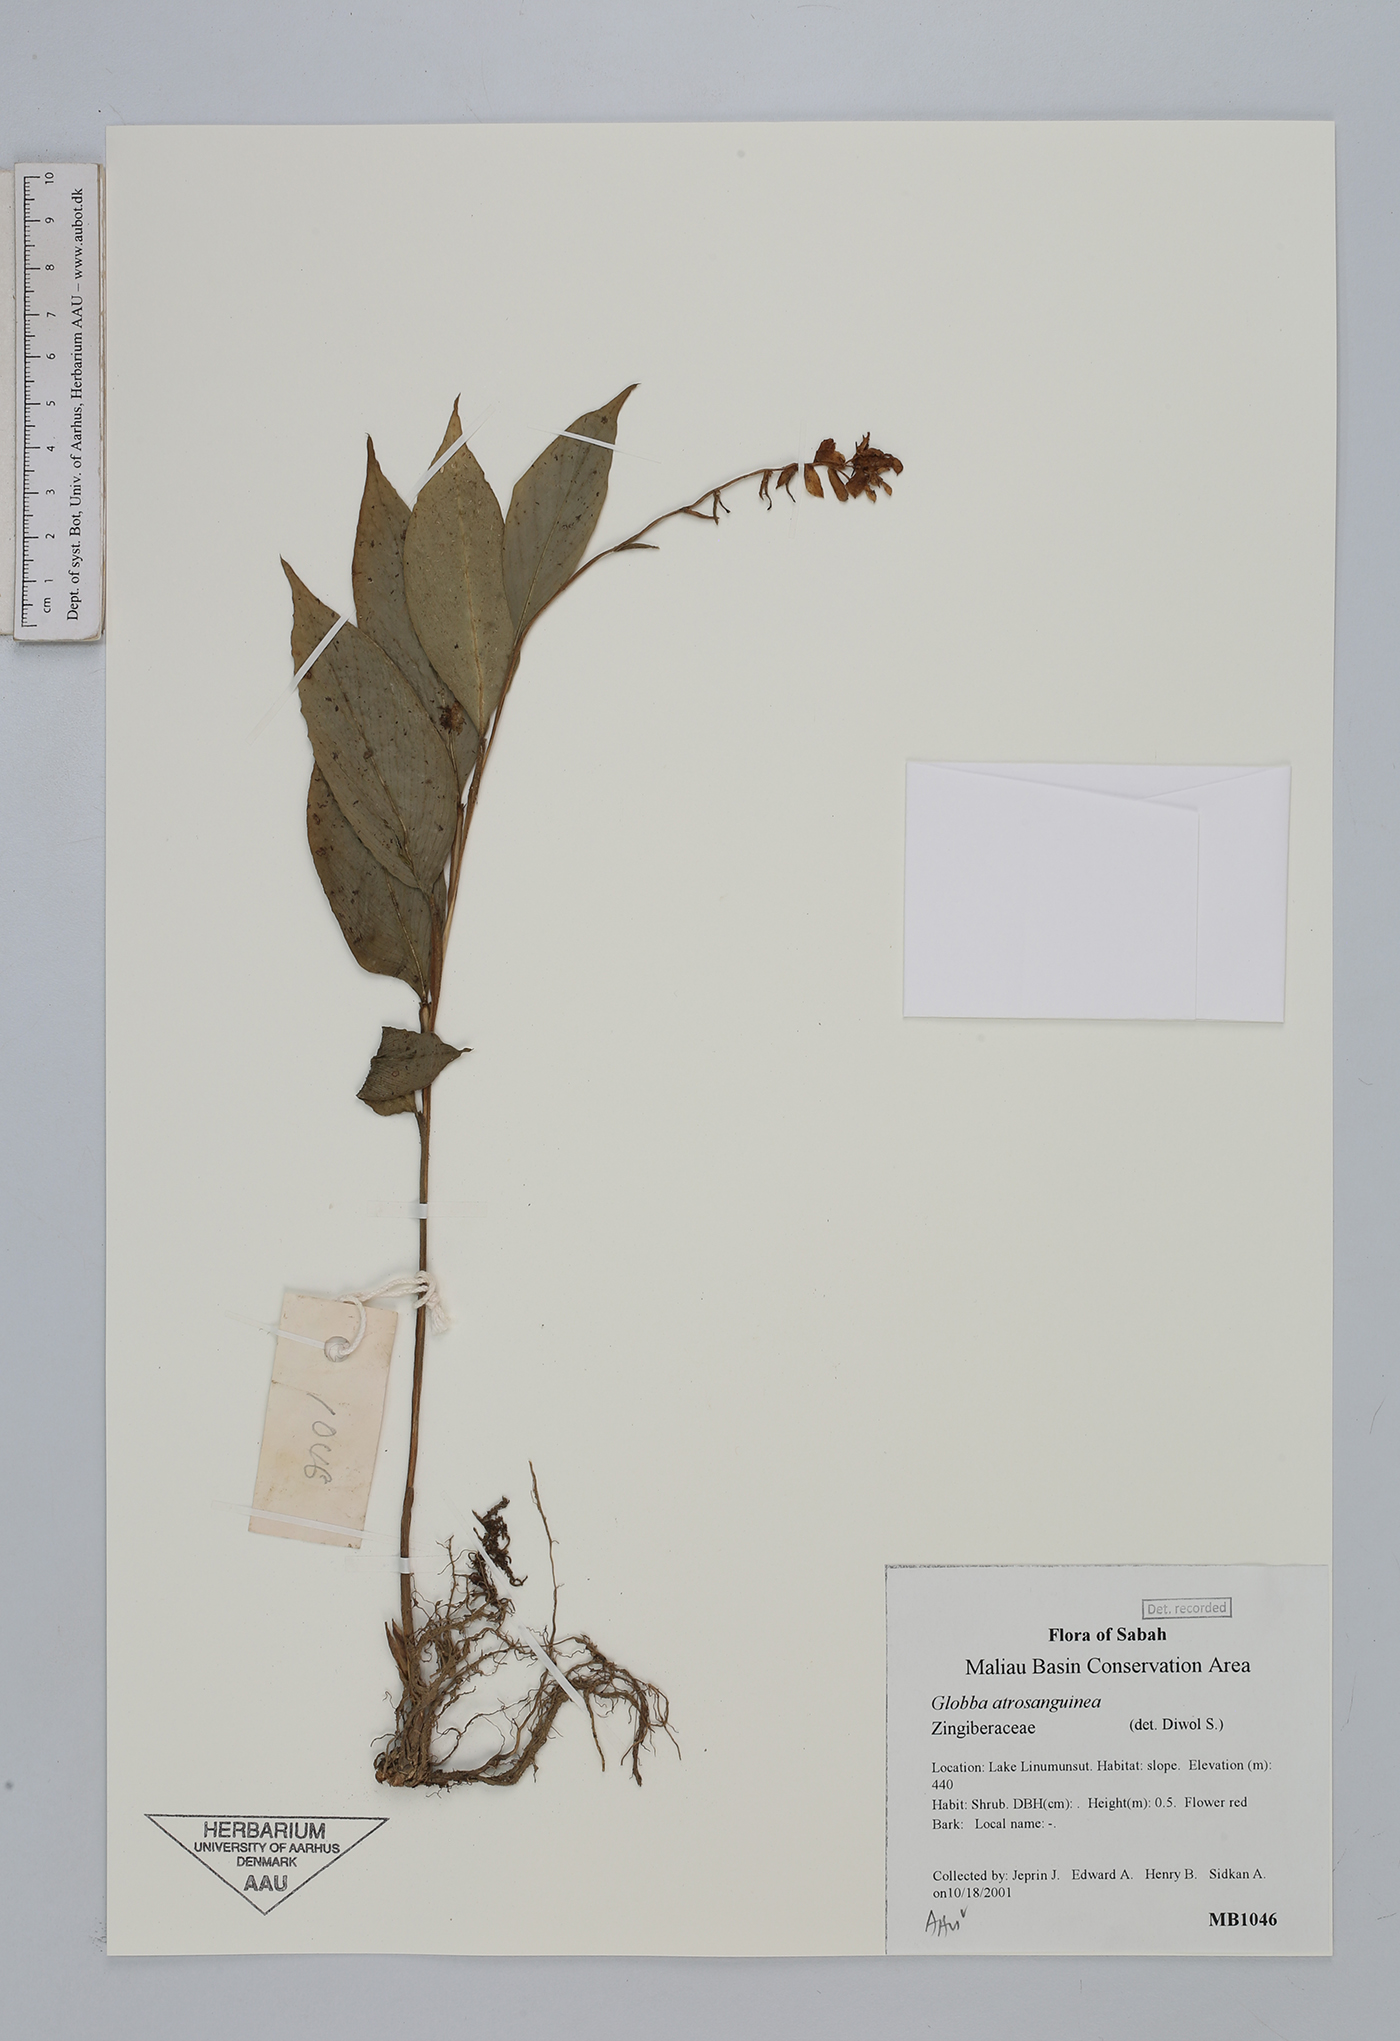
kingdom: Plantae
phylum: Tracheophyta
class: Liliopsida
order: Zingiberales
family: Zingiberaceae
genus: Globba
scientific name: Globba atrosanguinea
